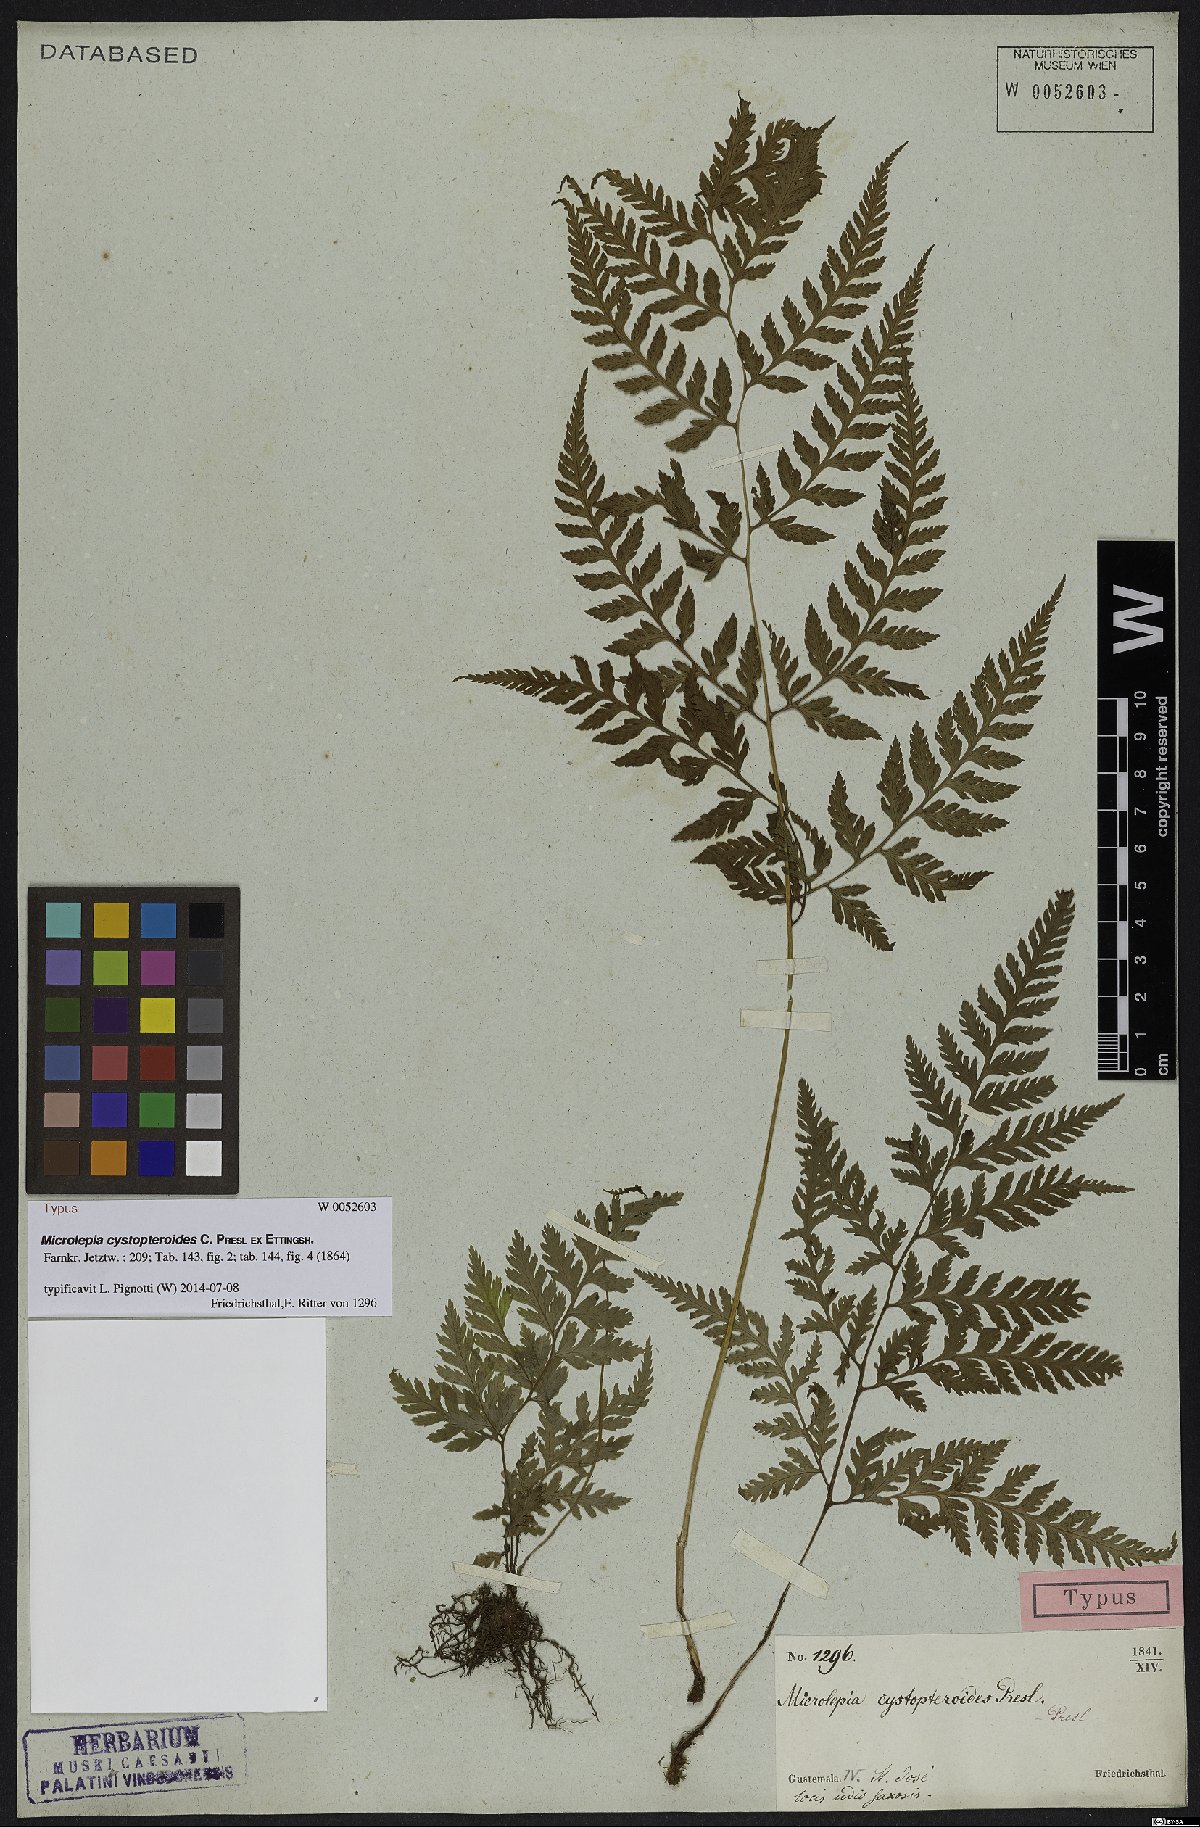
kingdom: Plantae
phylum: Tracheophyta
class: Polypodiopsida
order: Polypodiales
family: Dennstaedtiaceae
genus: Microlepia
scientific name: Microlepia cystopteroides
